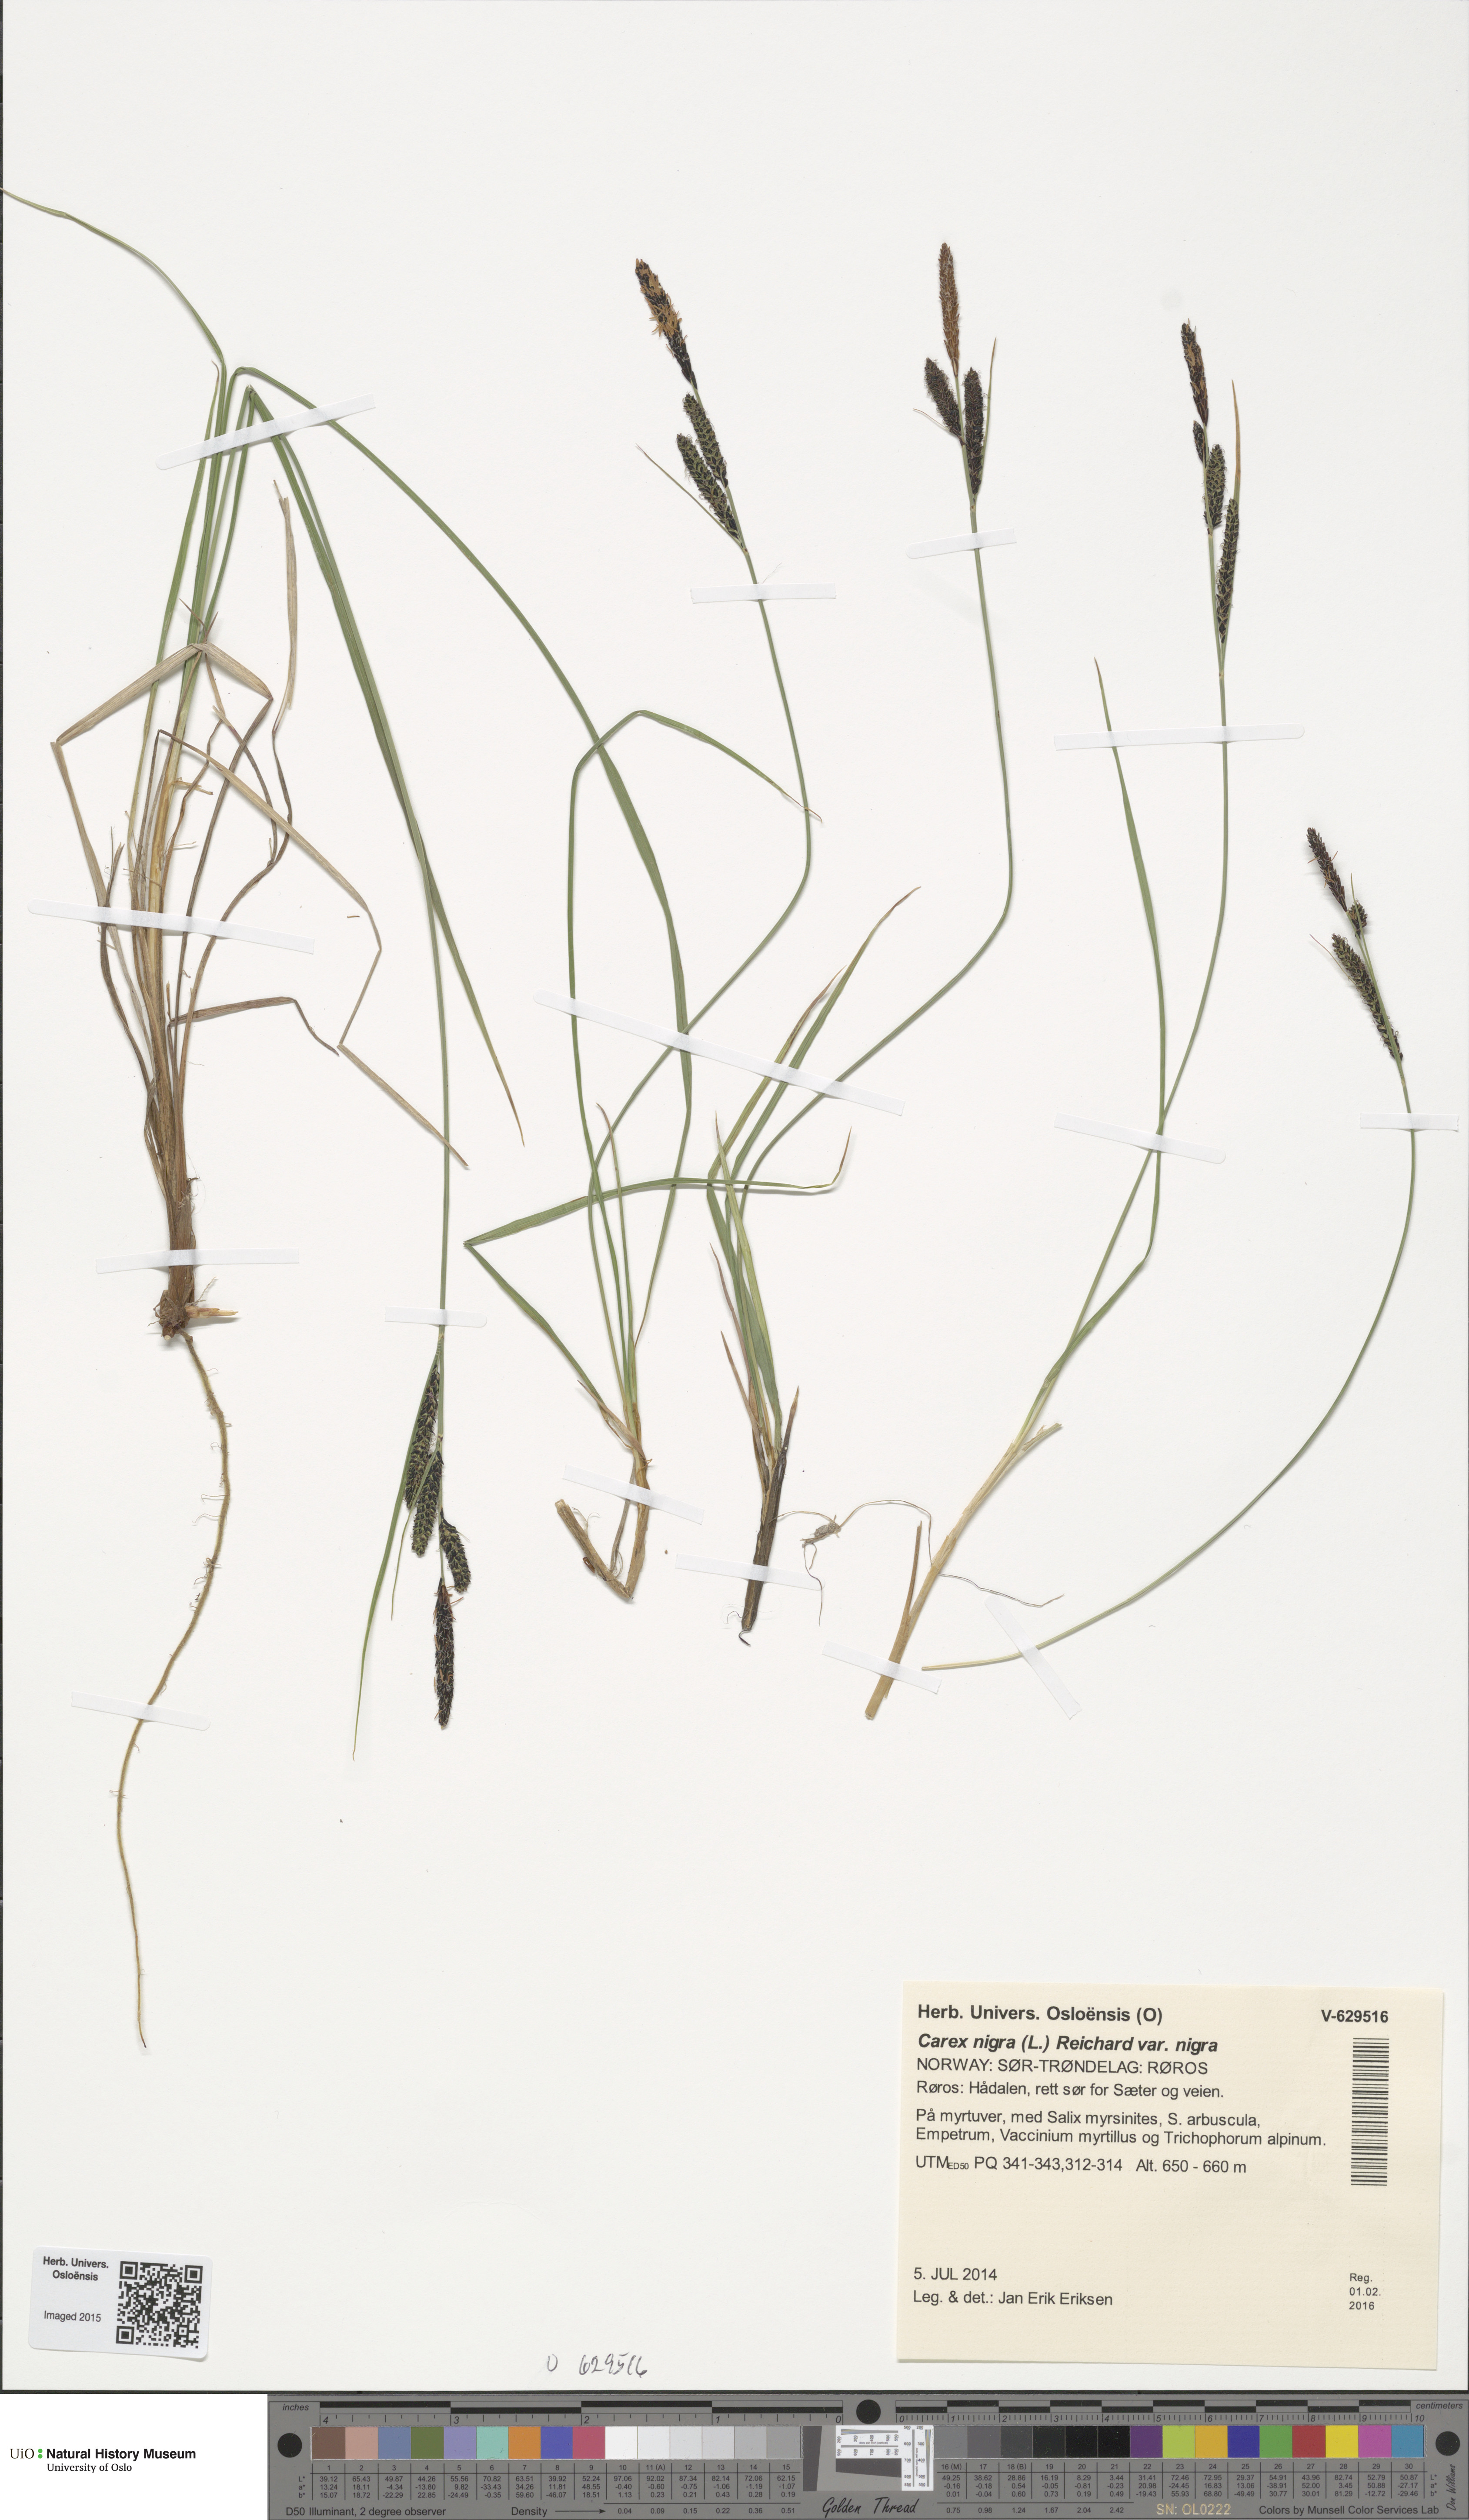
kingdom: Plantae
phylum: Tracheophyta
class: Liliopsida
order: Poales
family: Cyperaceae
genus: Carex
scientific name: Carex nigra
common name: Common sedge
